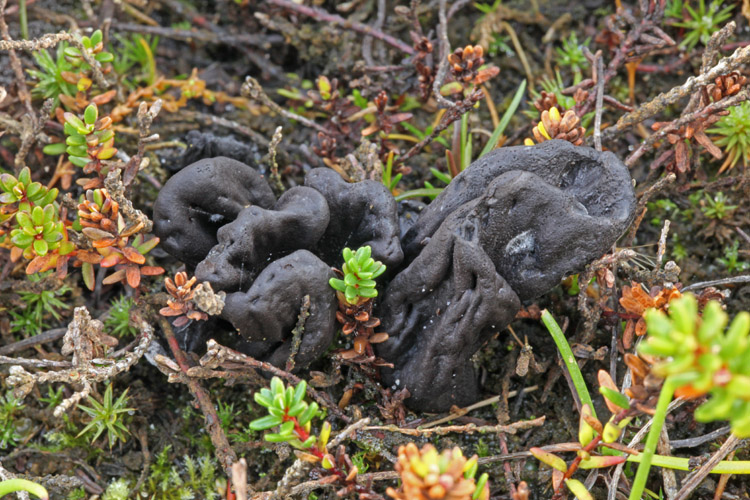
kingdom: Fungi
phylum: Ascomycota
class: Geoglossomycetes
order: Geoglossales
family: Geoglossaceae
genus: Sabuloglossum
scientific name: Sabuloglossum arenarium
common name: klit-jordtunge
